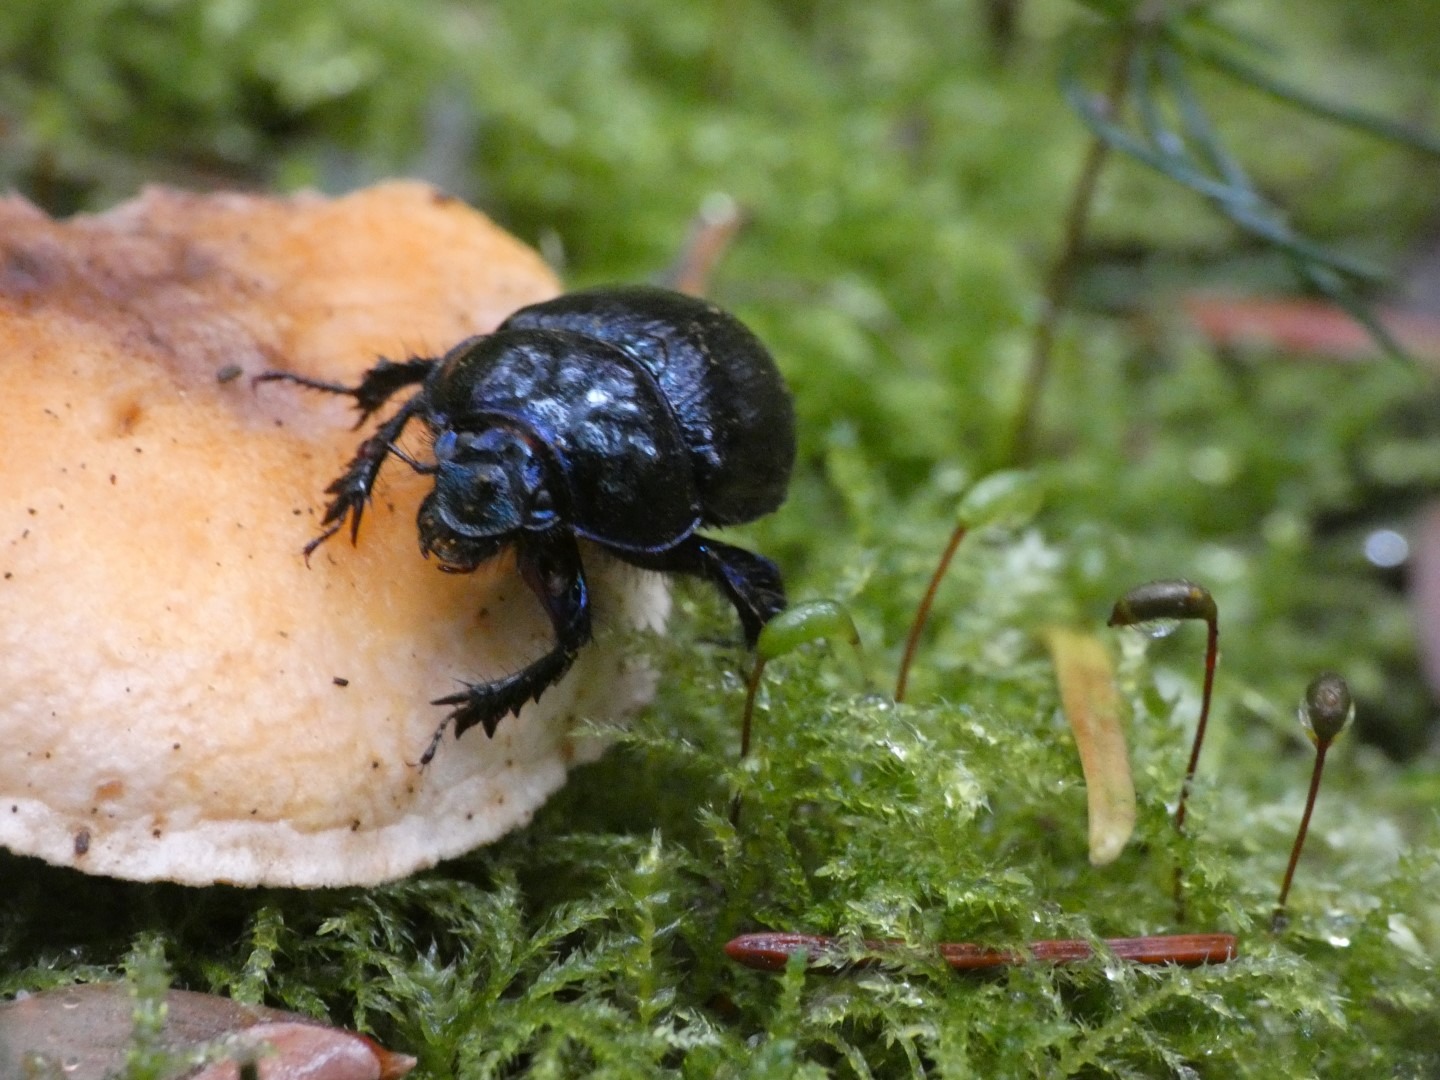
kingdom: Animalia
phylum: Arthropoda
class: Insecta
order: Coleoptera
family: Geotrupidae
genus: Anoplotrupes
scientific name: Anoplotrupes stercorosus
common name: Skovskarnbasse
